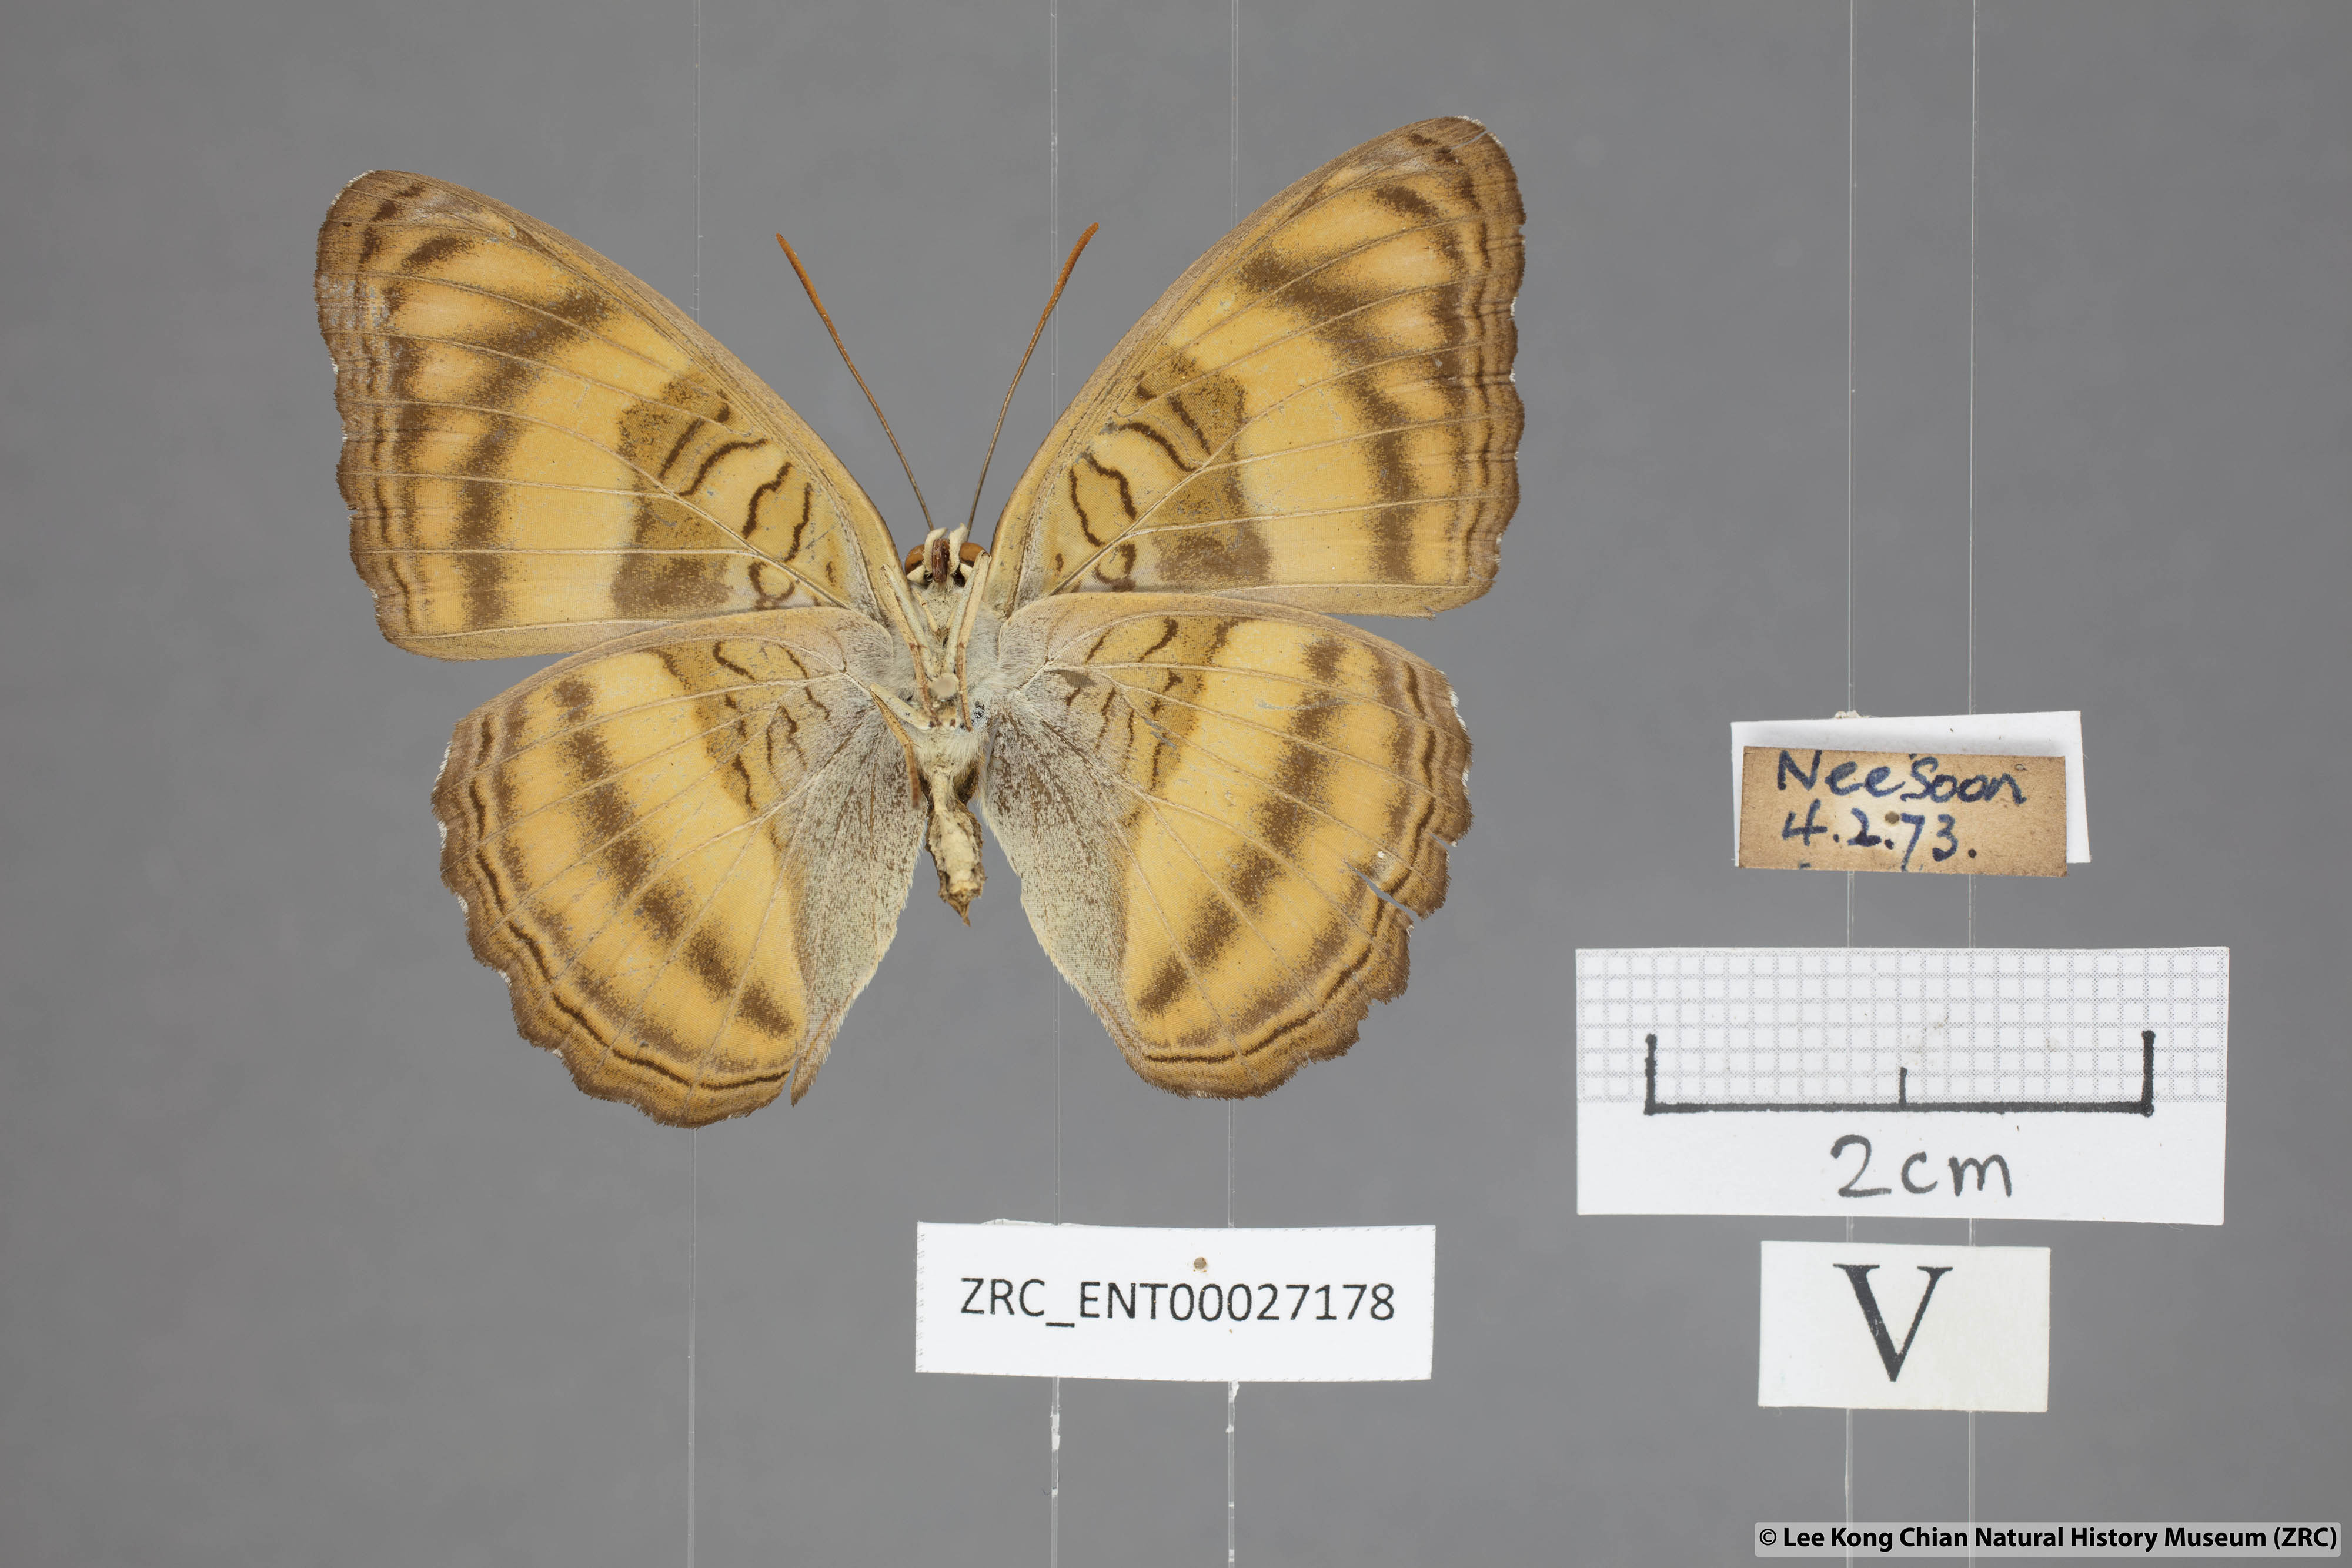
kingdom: Animalia
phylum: Arthropoda
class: Insecta
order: Lepidoptera
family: Nymphalidae
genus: Pandita
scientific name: Pandita sinope
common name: Colonel
